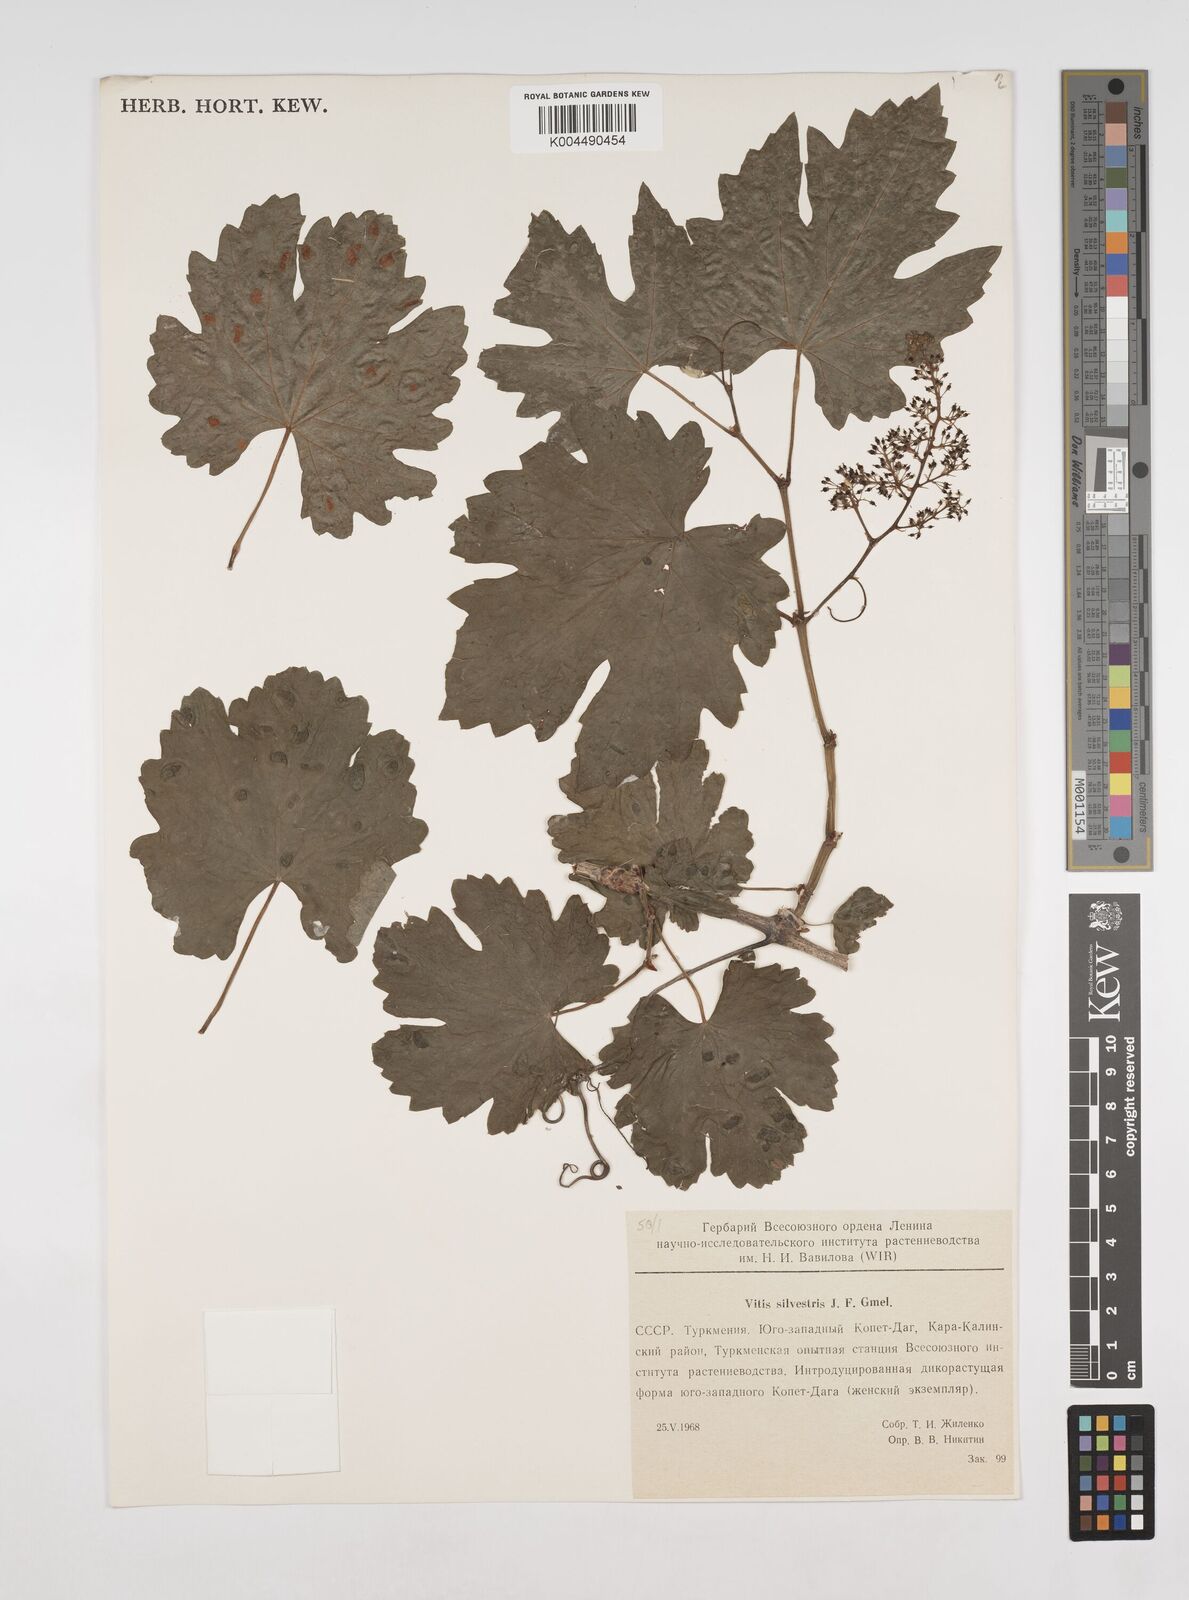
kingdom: Plantae
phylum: Tracheophyta
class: Magnoliopsida
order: Vitales
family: Vitaceae
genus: Vitis
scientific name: Vitis
